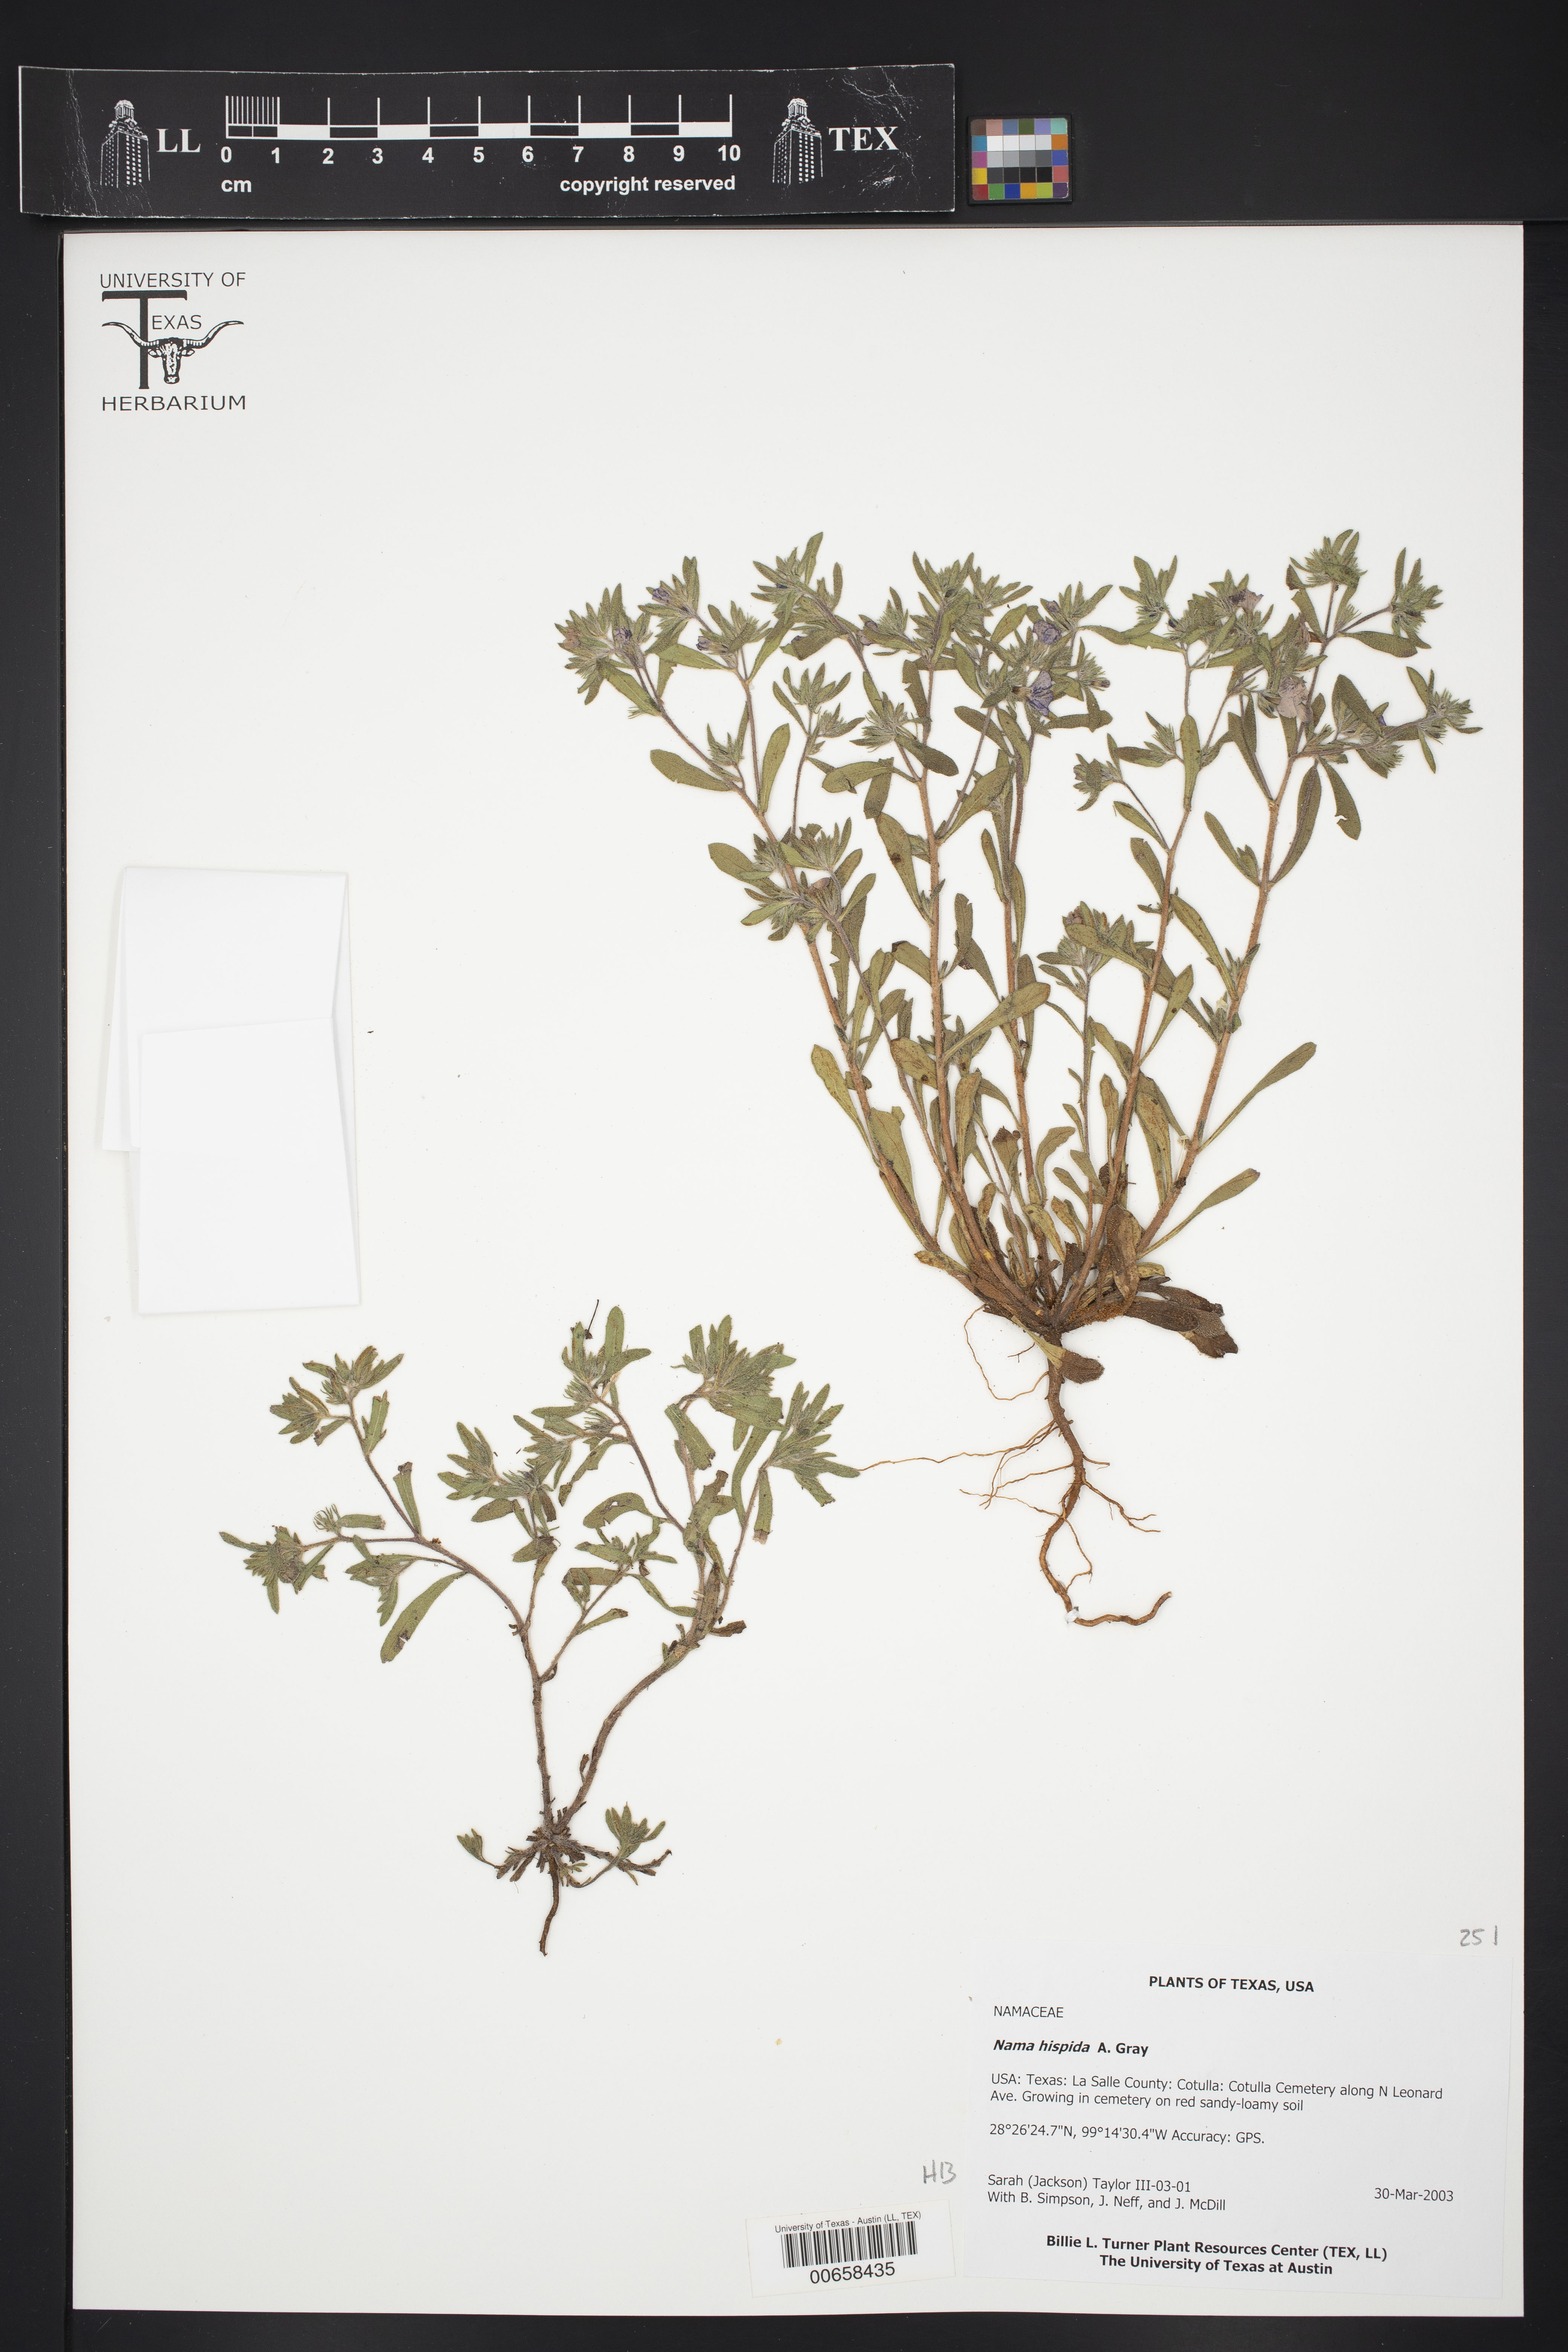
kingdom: Plantae
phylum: Tracheophyta
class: Magnoliopsida
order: Boraginales
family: Namaceae
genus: Nama
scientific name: Nama hispida
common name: Bristly nama
